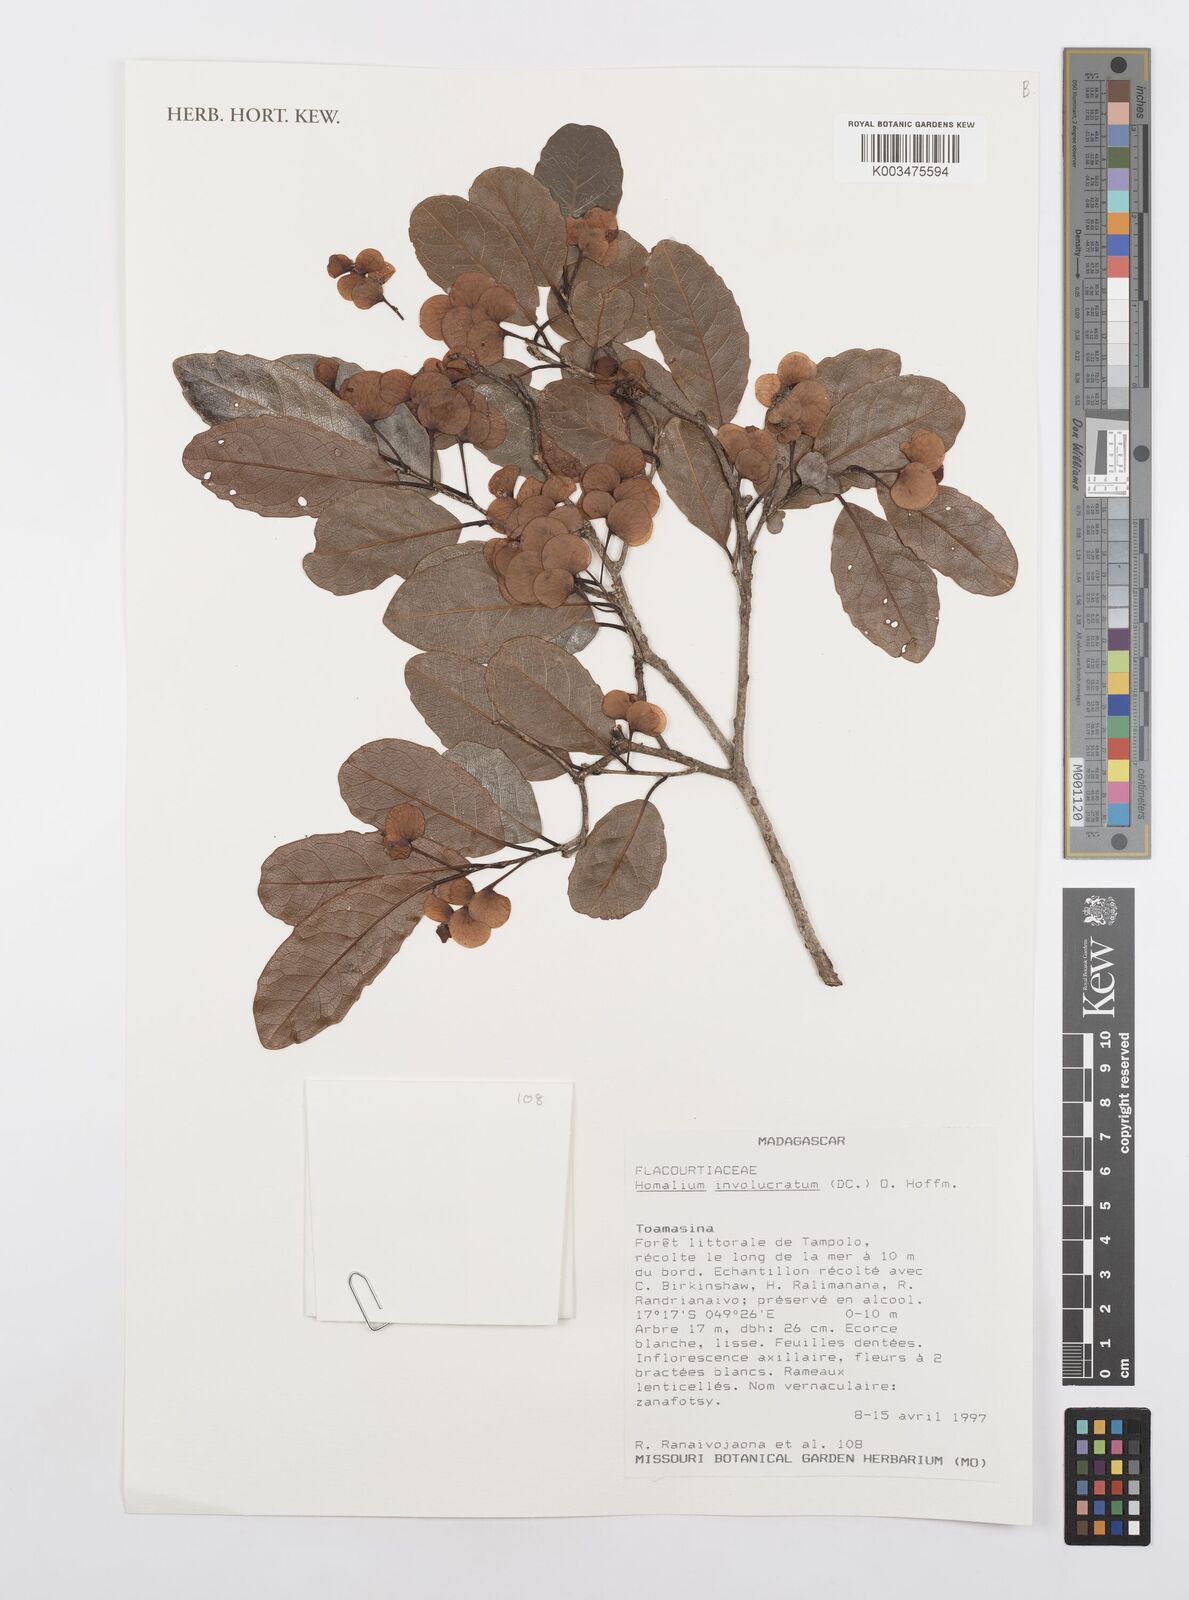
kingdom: Plantae
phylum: Tracheophyta
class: Magnoliopsida
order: Malpighiales
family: Salicaceae
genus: Homalium
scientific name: Homalium involucratum
